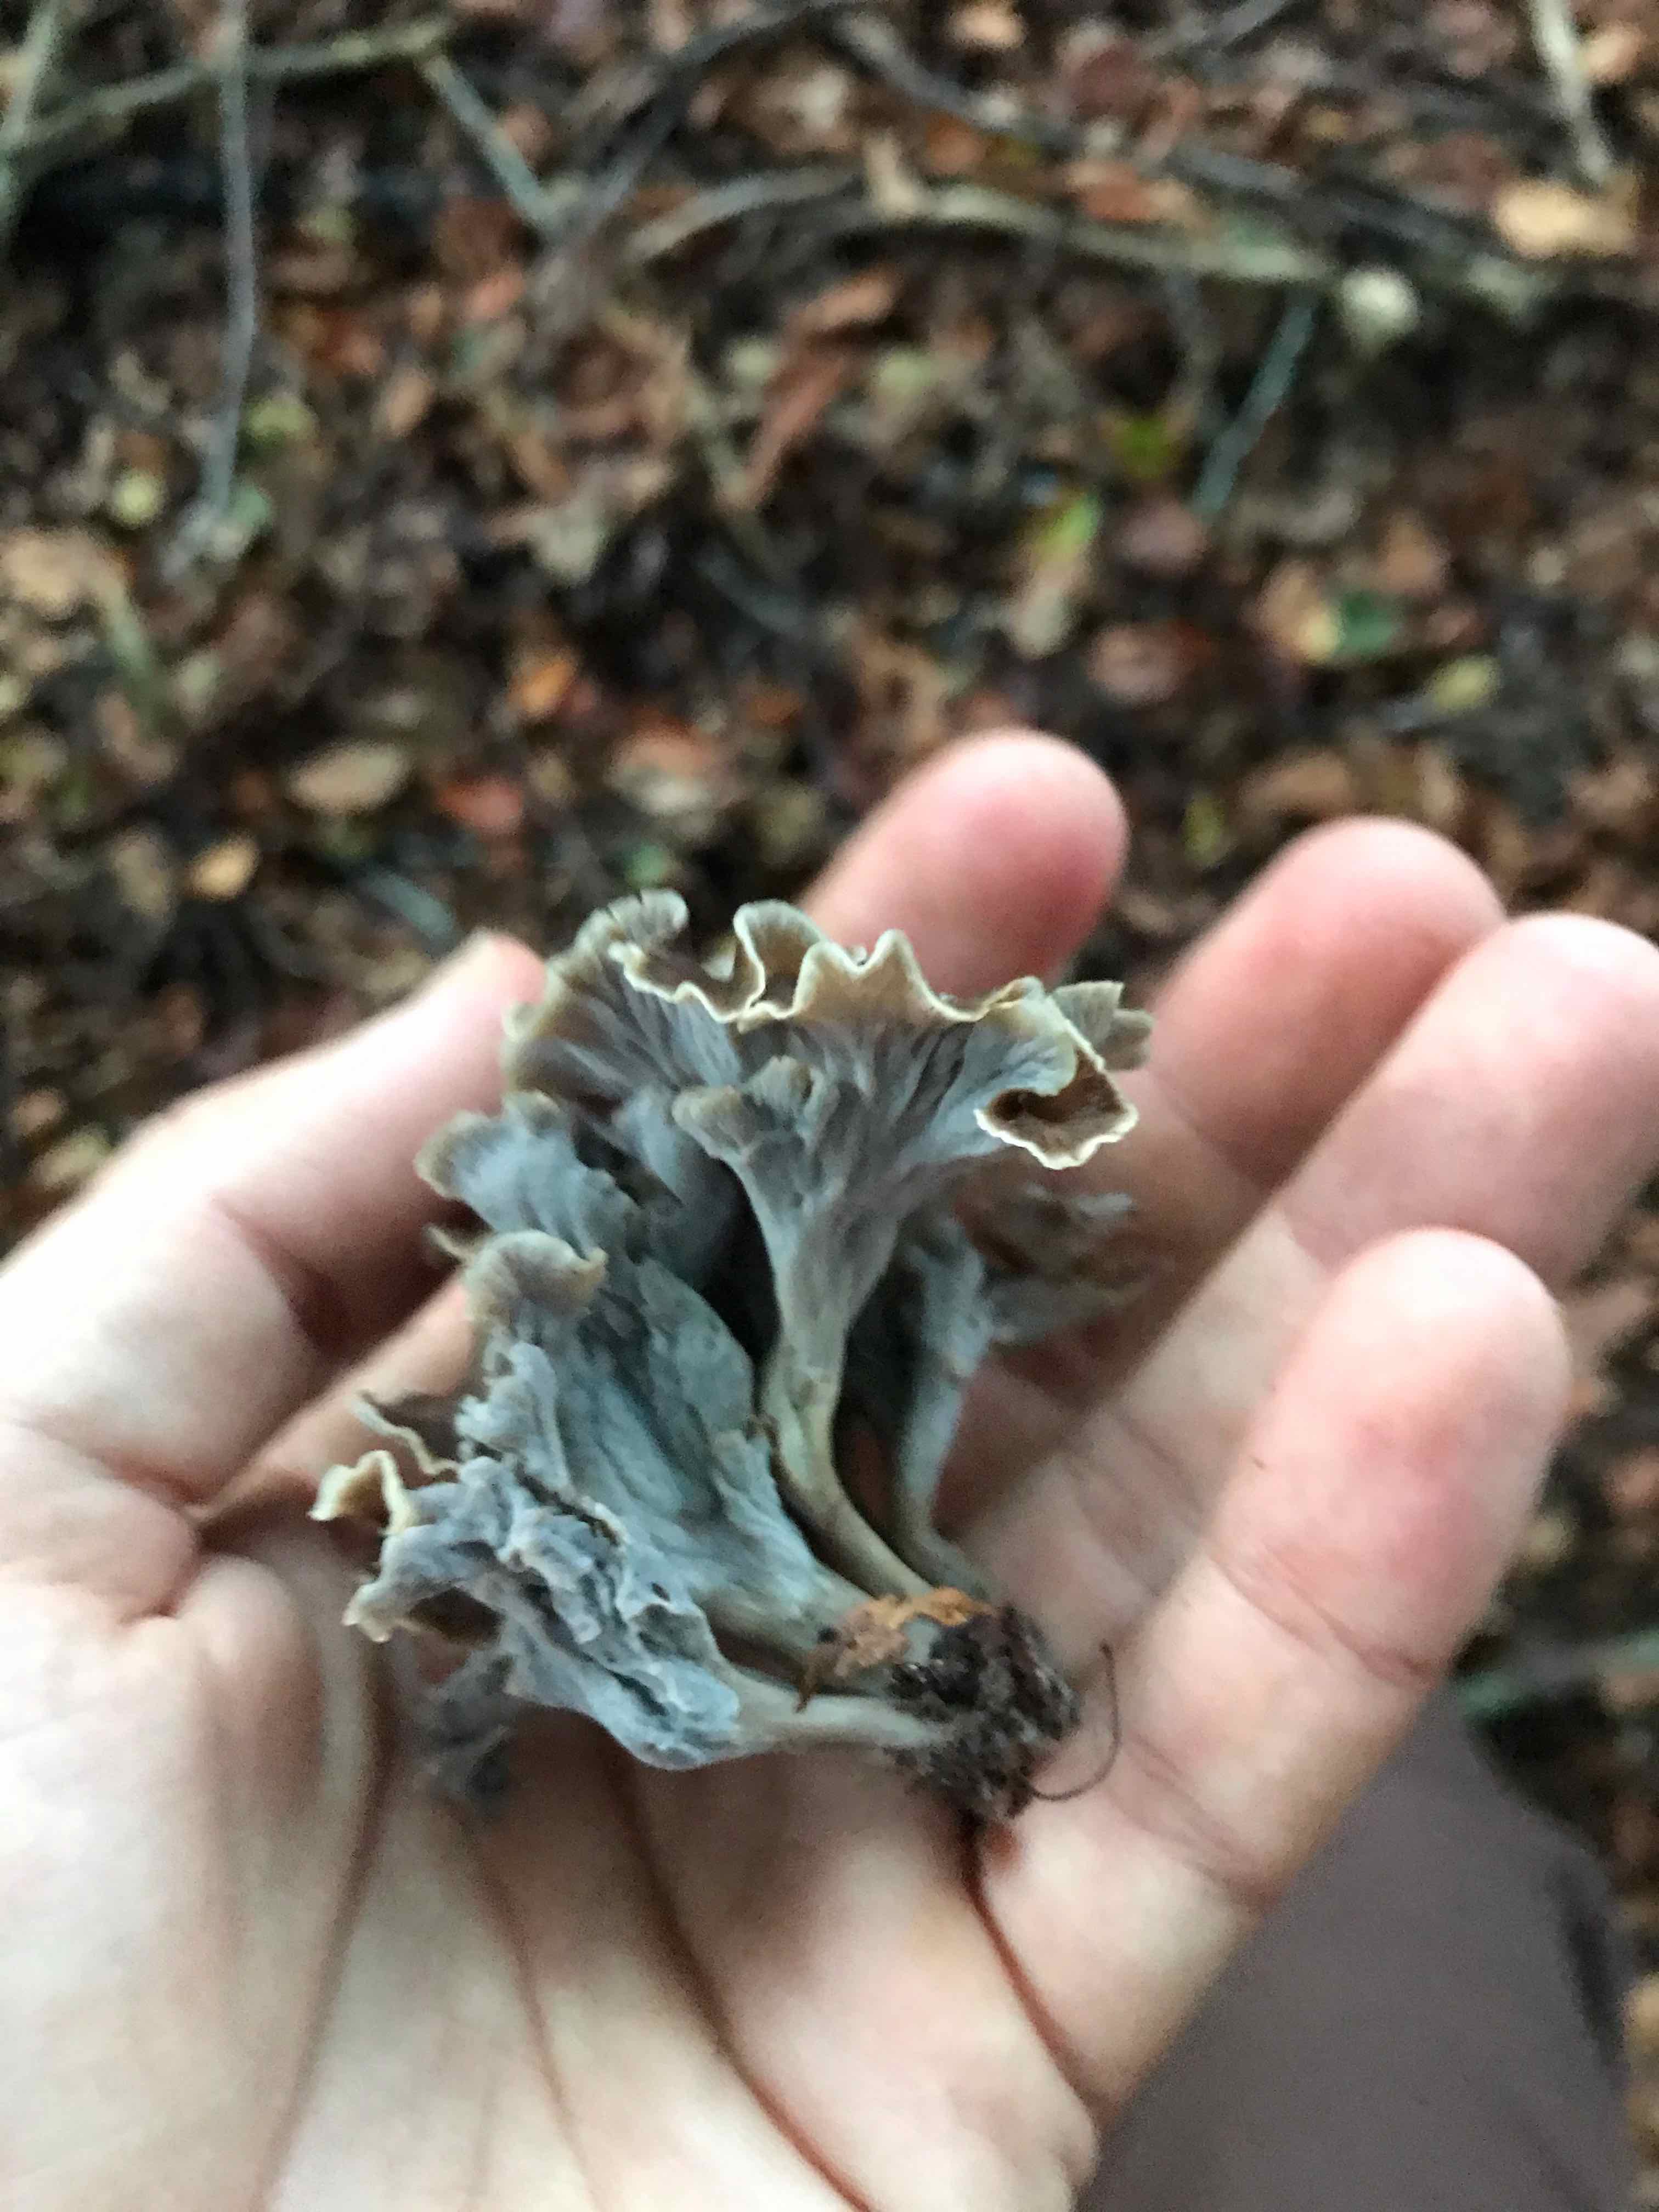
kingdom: Fungi
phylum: Basidiomycota
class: Agaricomycetes
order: Cantharellales
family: Hydnaceae
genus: Craterellus
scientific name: Craterellus undulatus
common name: liden kantarel
